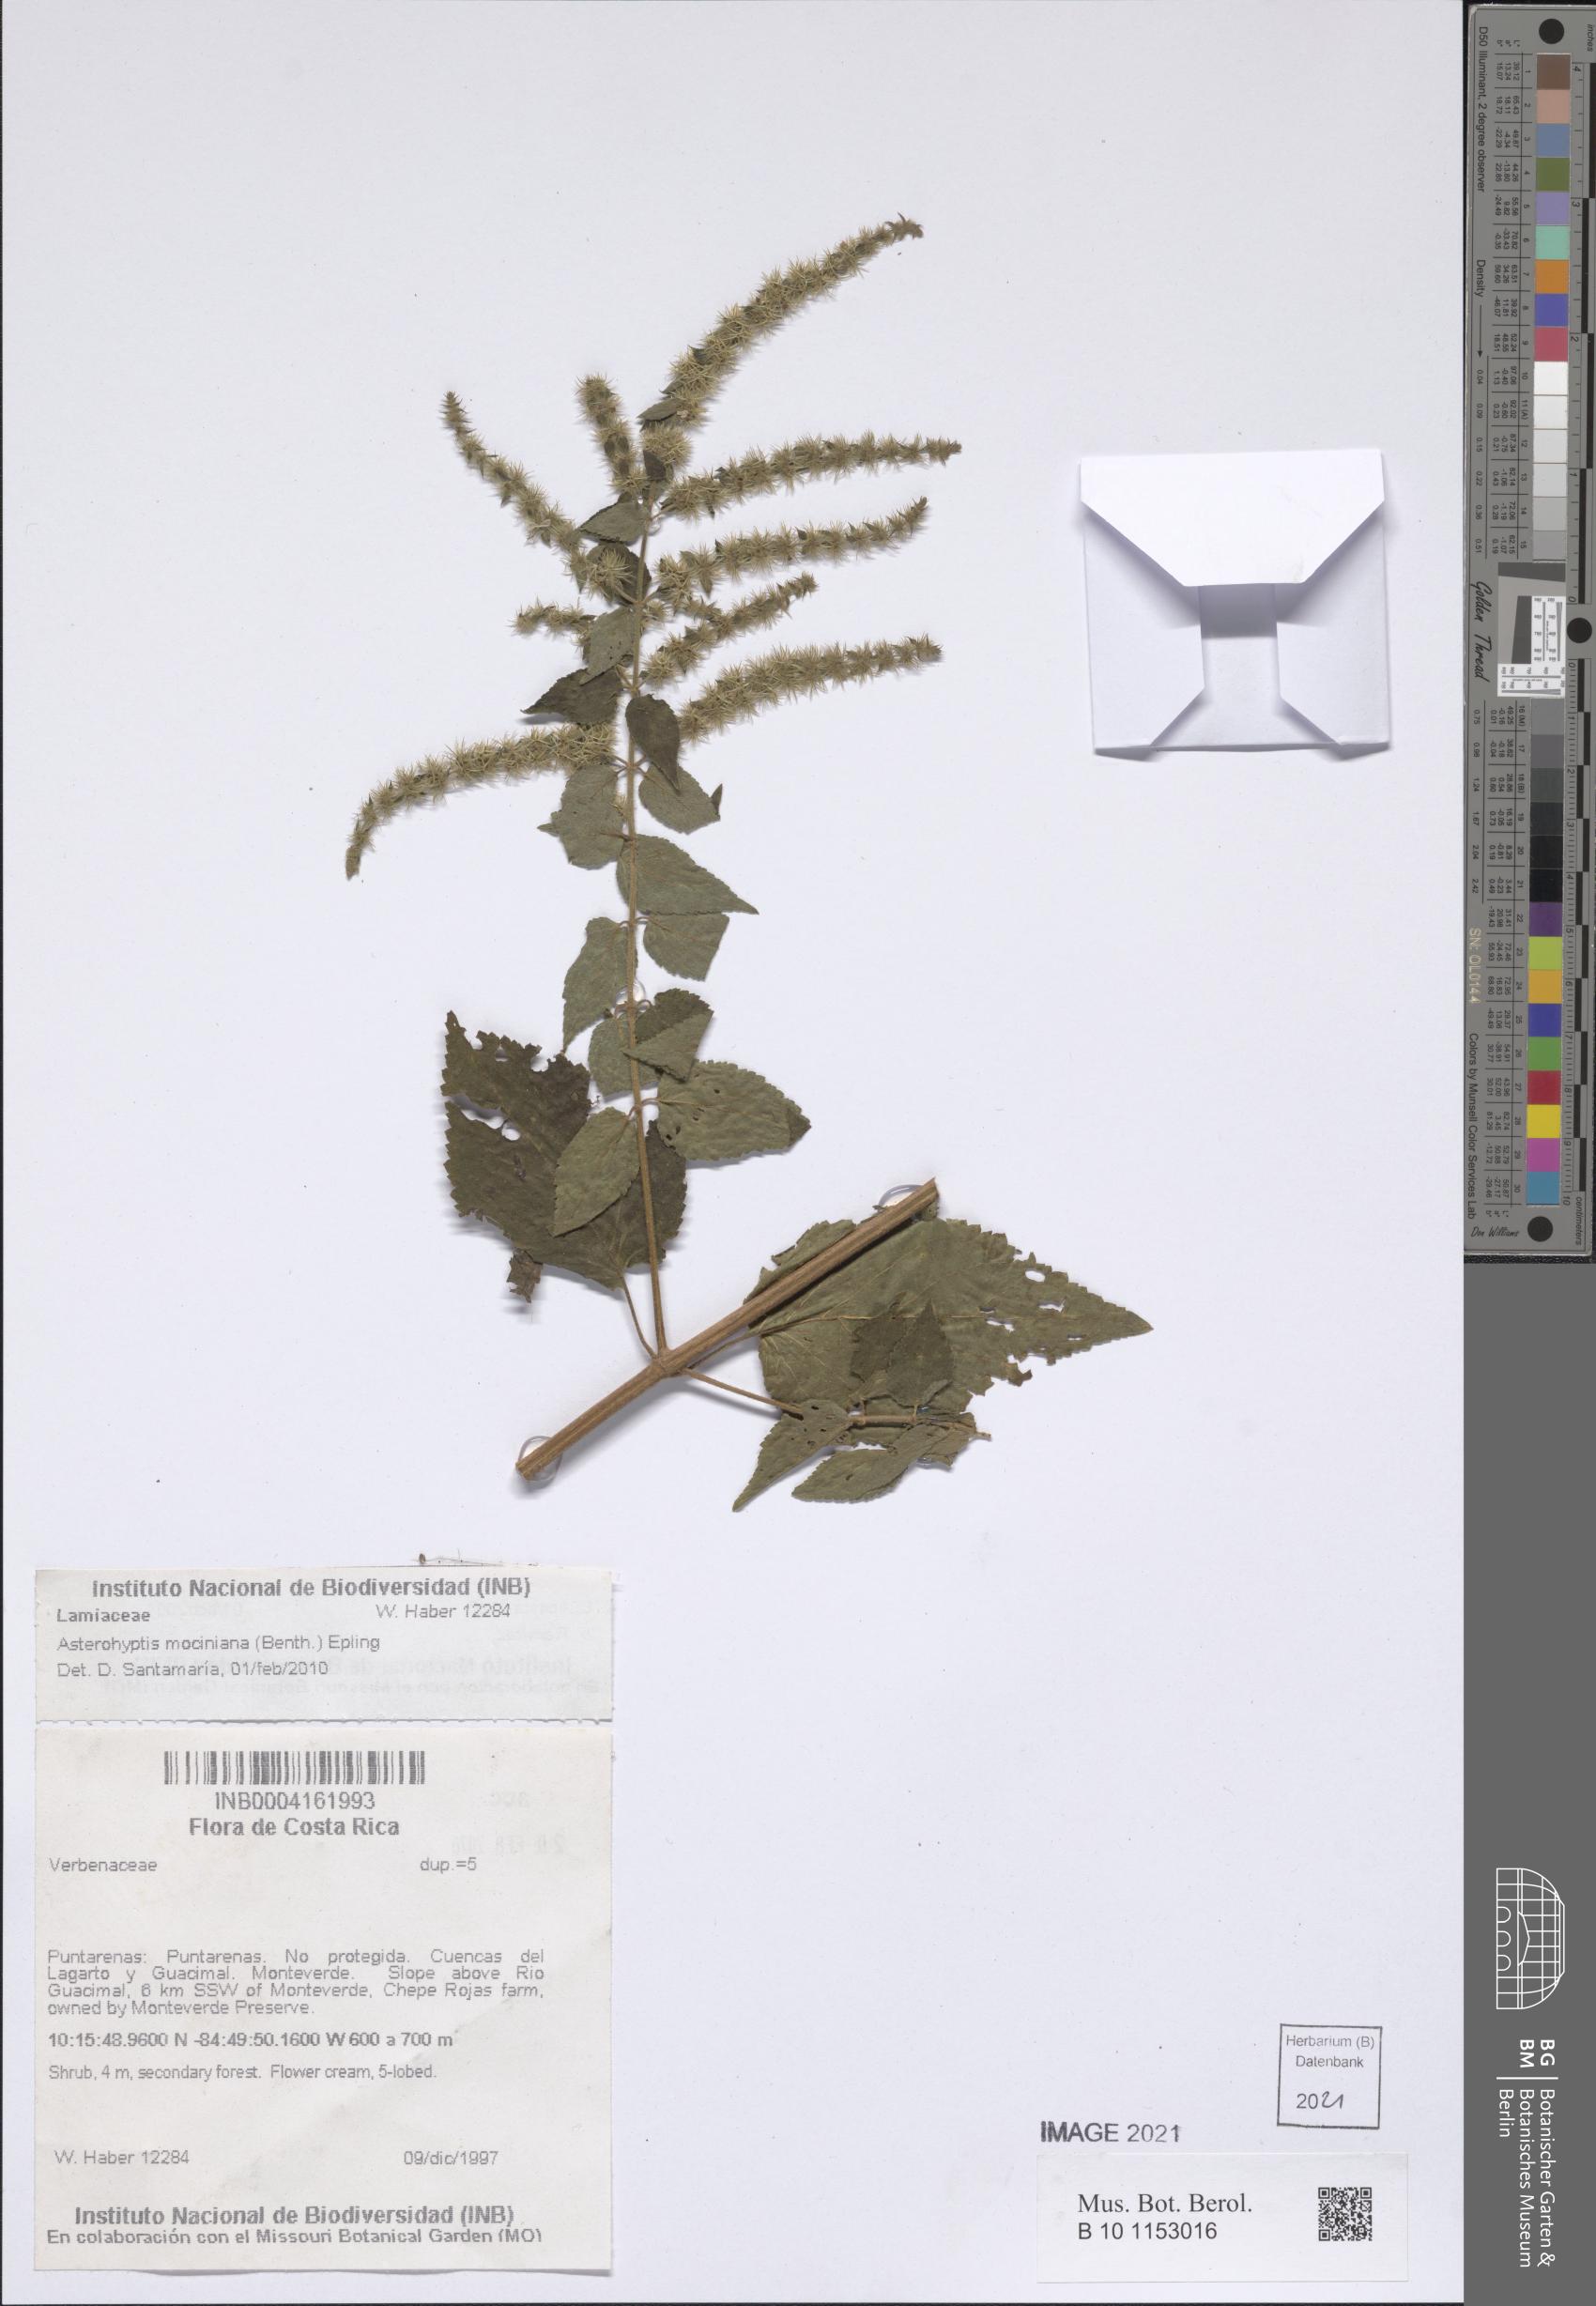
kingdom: Plantae
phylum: Tracheophyta
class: Magnoliopsida
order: Lamiales
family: Lamiaceae
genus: Asterohyptis
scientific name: Asterohyptis mociniana
